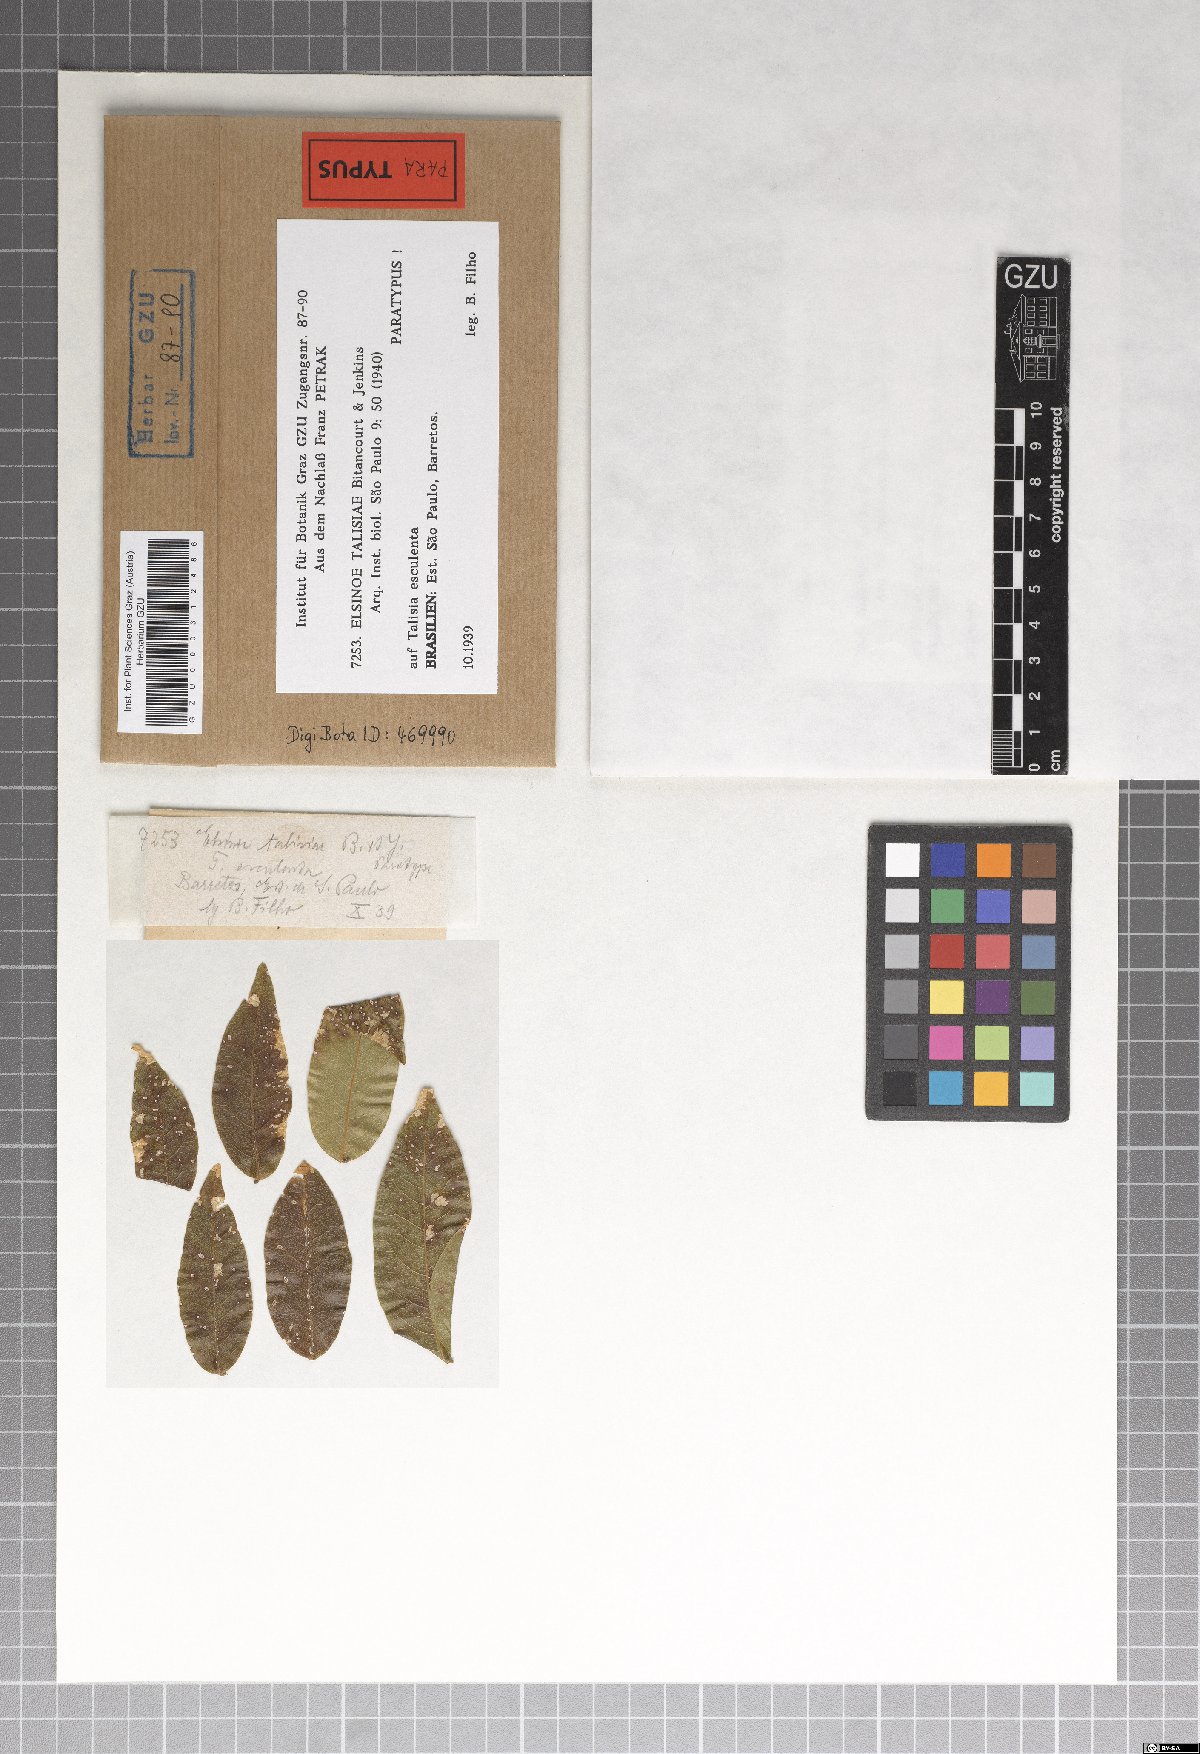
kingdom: Fungi
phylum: Ascomycota
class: Dothideomycetes
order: Myriangiales
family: Elsinoaceae
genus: Elsinoe
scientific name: Elsinoe talisiae
